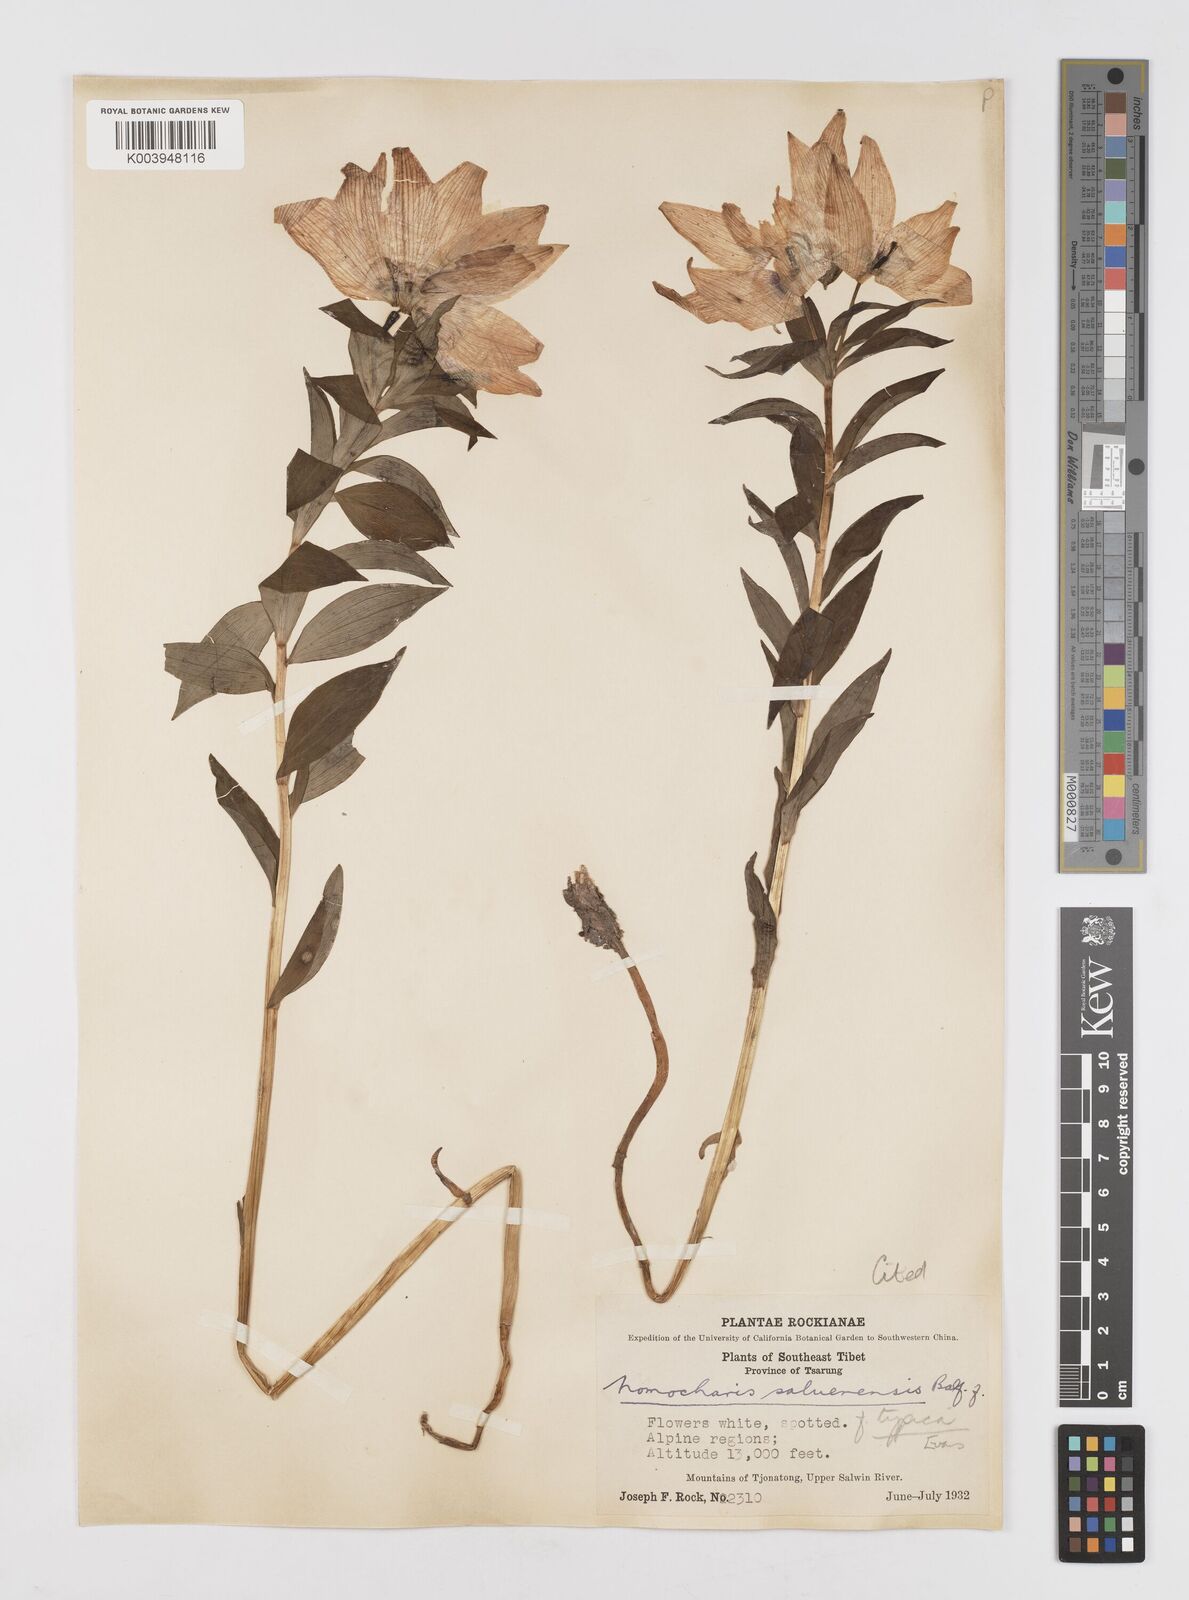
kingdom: Plantae
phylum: Tracheophyta
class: Liliopsida
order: Liliales
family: Liliaceae
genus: Lilium
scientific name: Lilium saluenense
